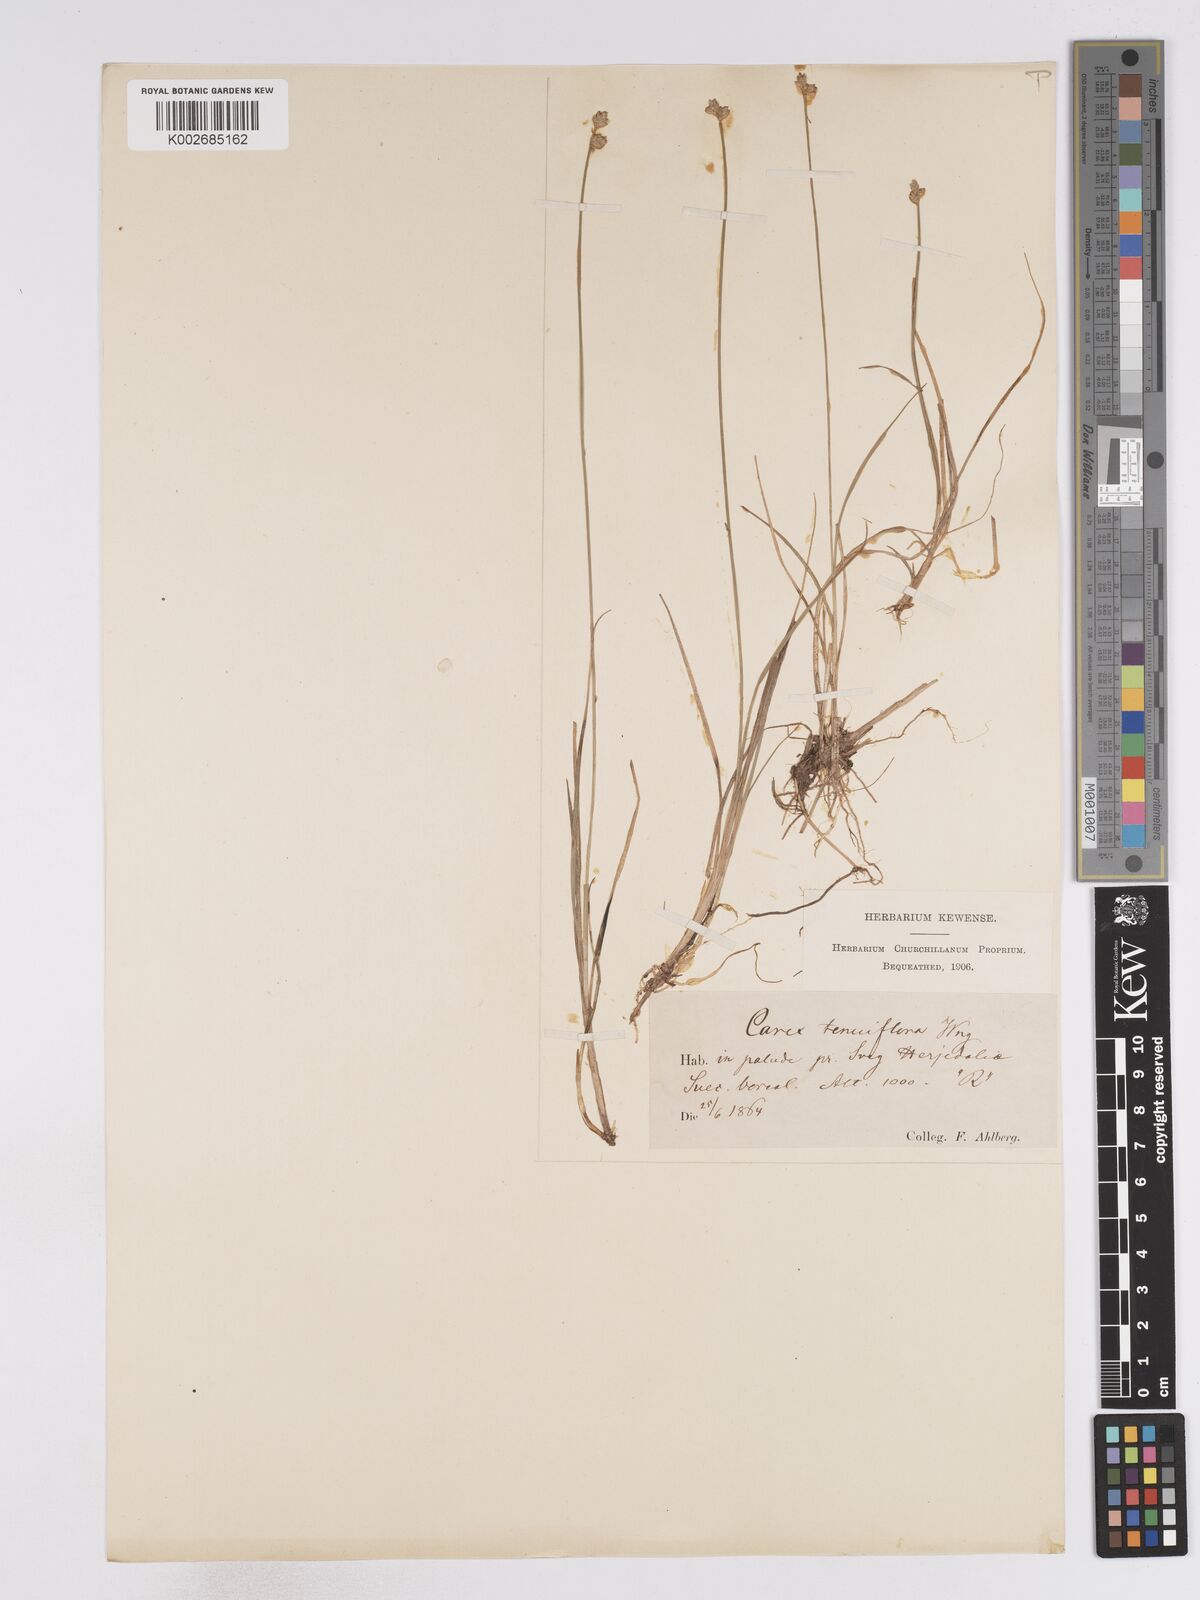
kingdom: Plantae
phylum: Tracheophyta
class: Liliopsida
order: Poales
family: Cyperaceae
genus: Carex
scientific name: Carex tenuiflora
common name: Sparse-flowered sedge
